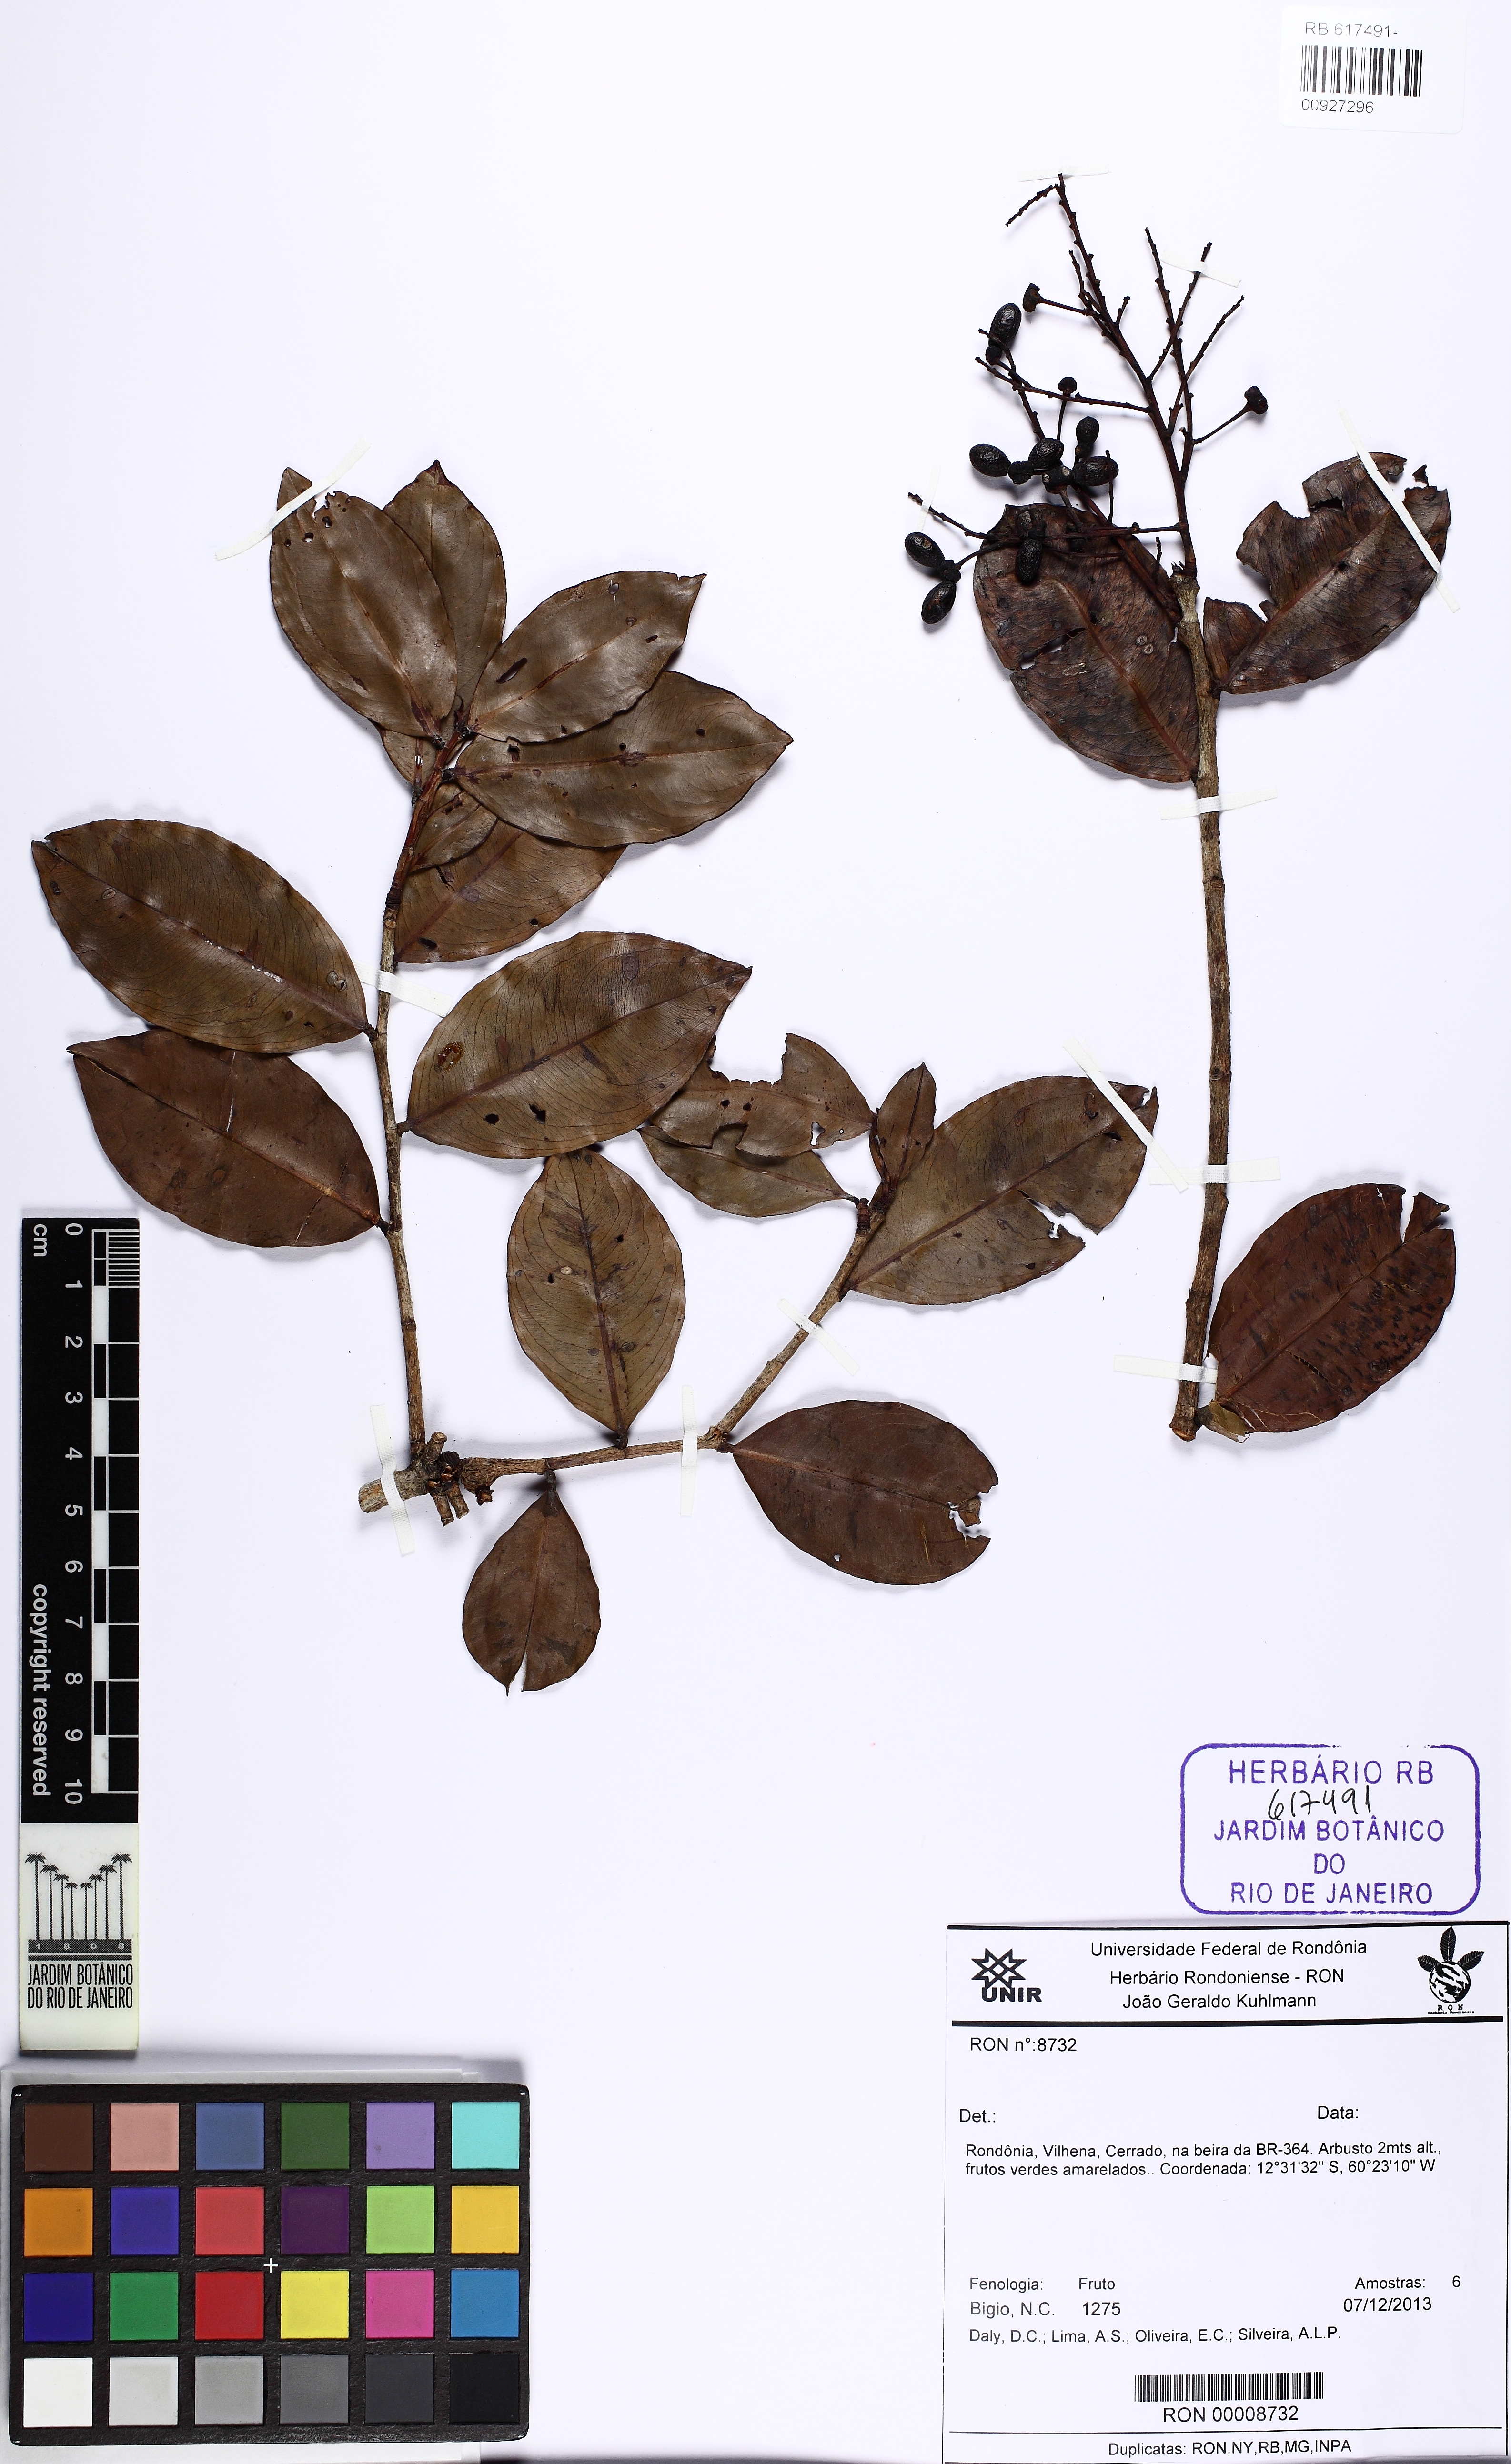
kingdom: Plantae
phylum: Tracheophyta
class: Magnoliopsida
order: Malpighiales
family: Ochnaceae
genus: Ouratea
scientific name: Ouratea
